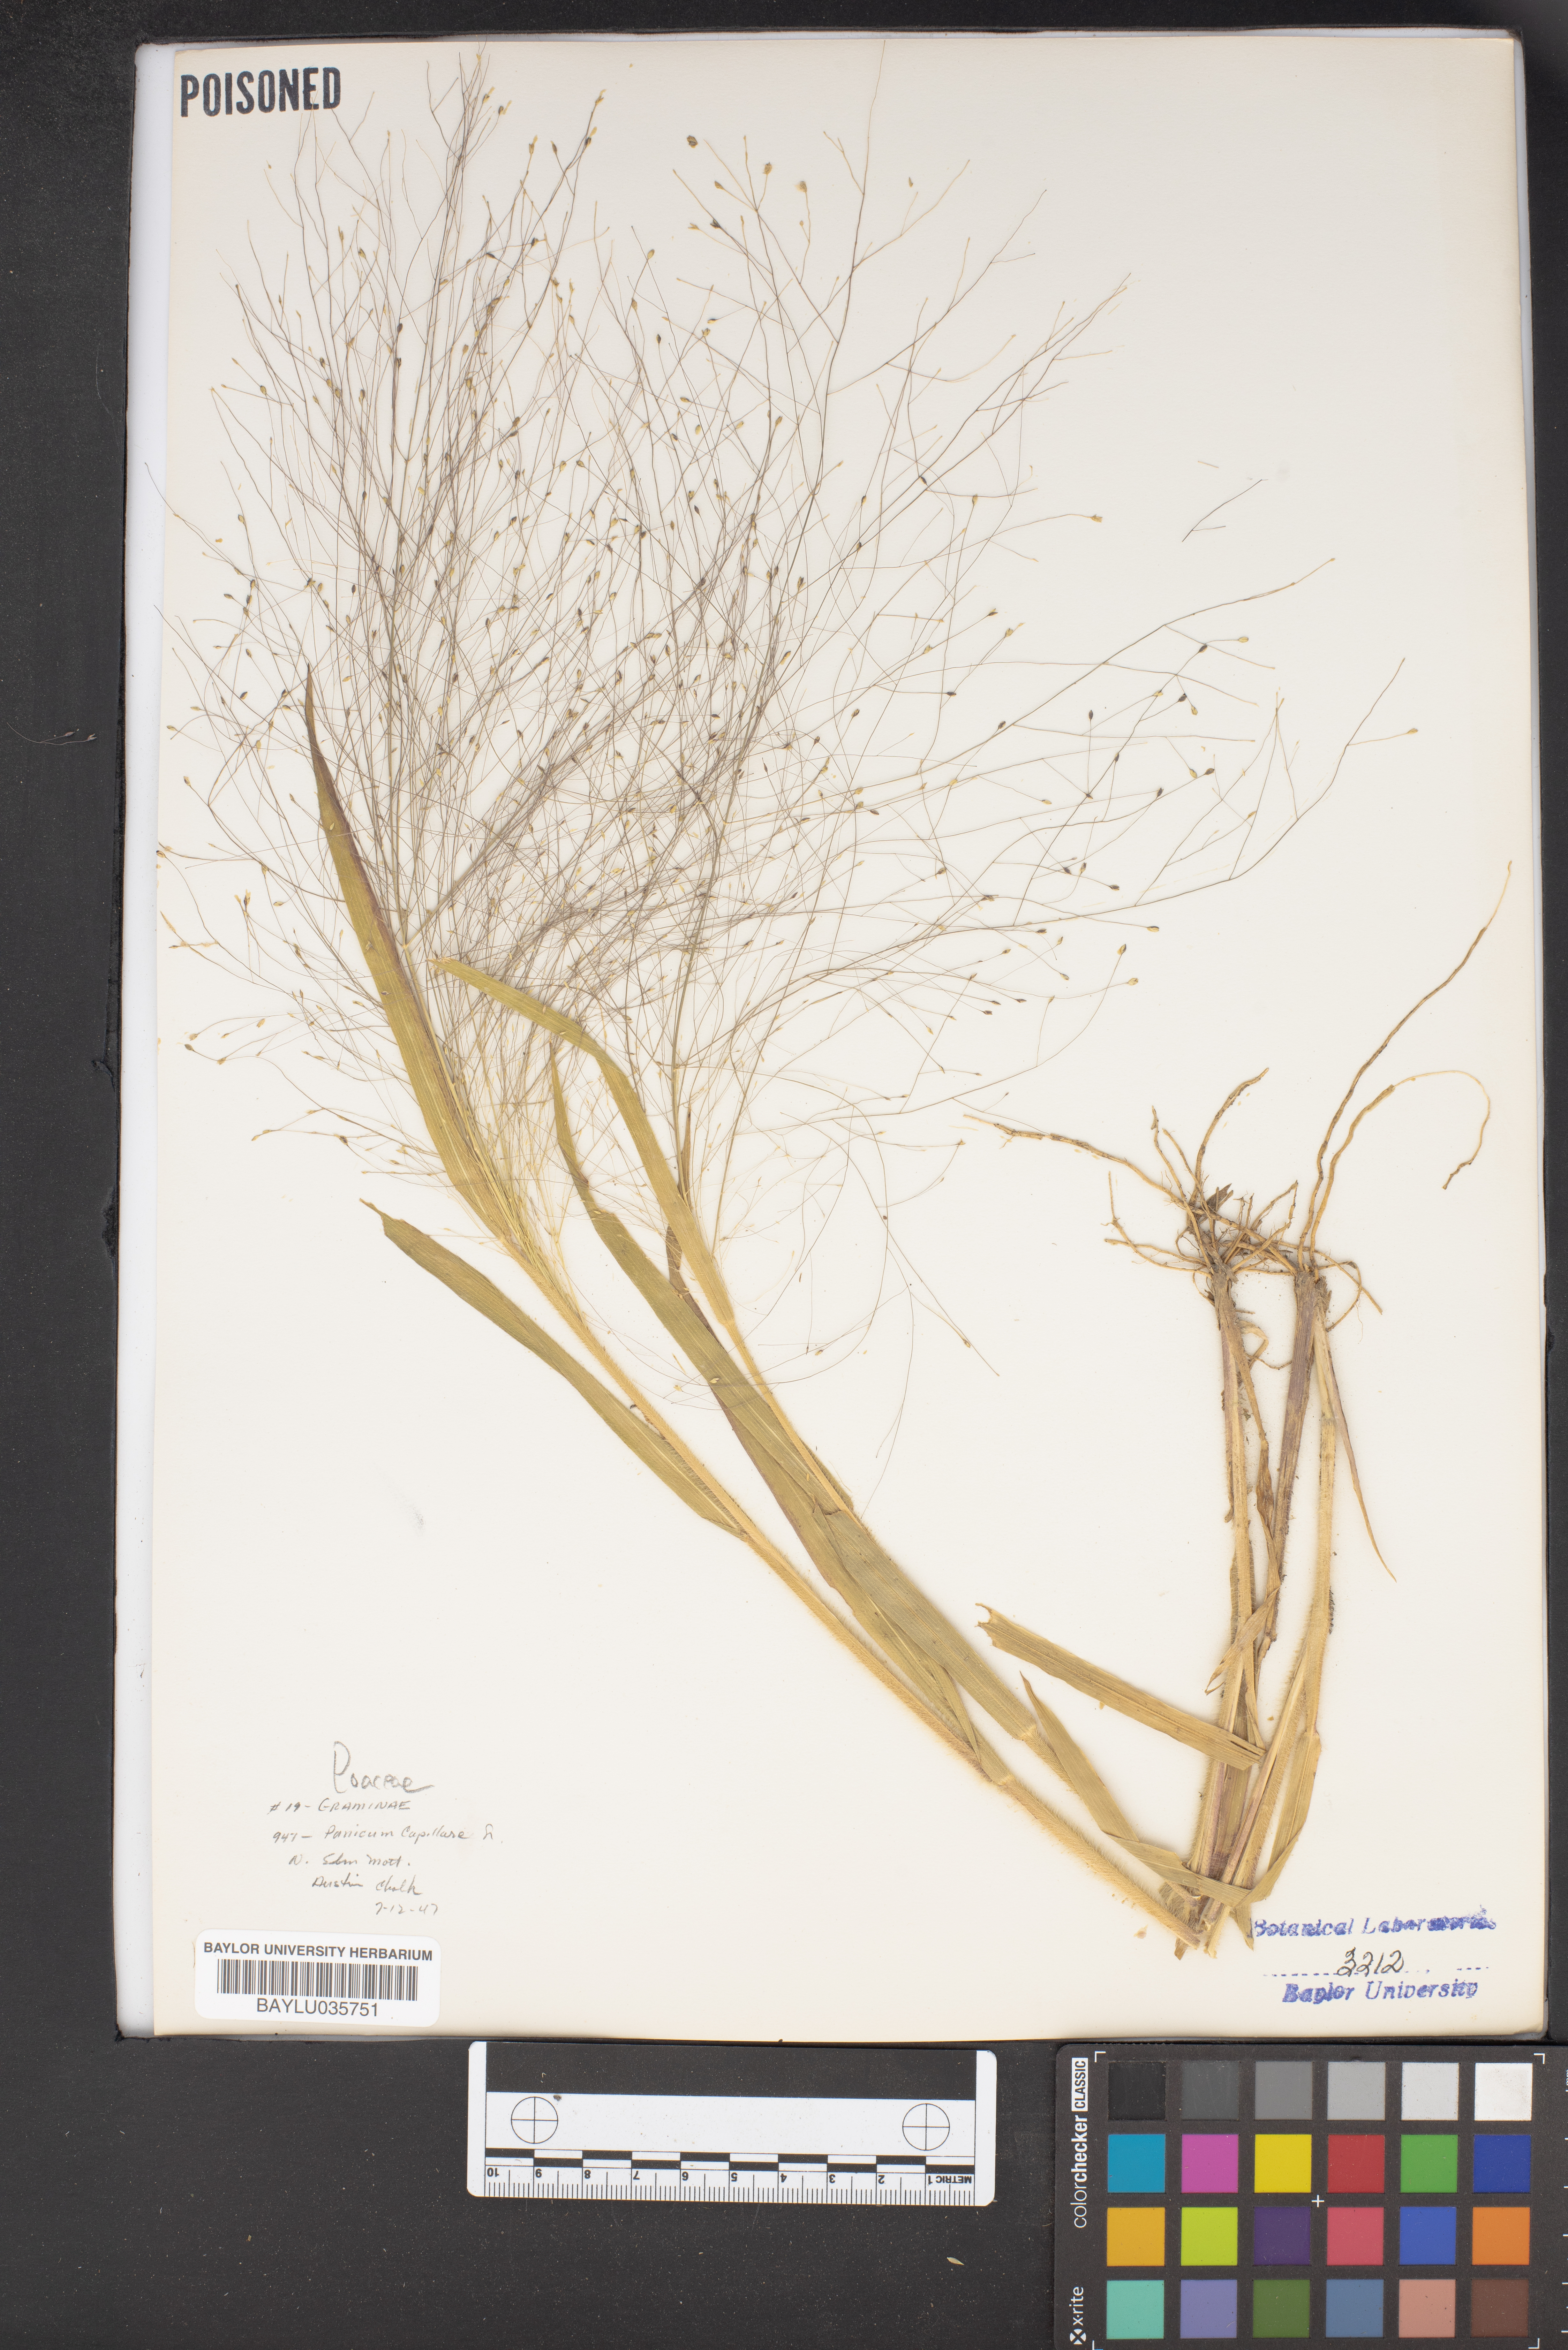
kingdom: Plantae
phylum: Tracheophyta
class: Liliopsida
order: Poales
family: Poaceae
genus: Panicum
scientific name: Panicum capillare
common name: Witch-grass
